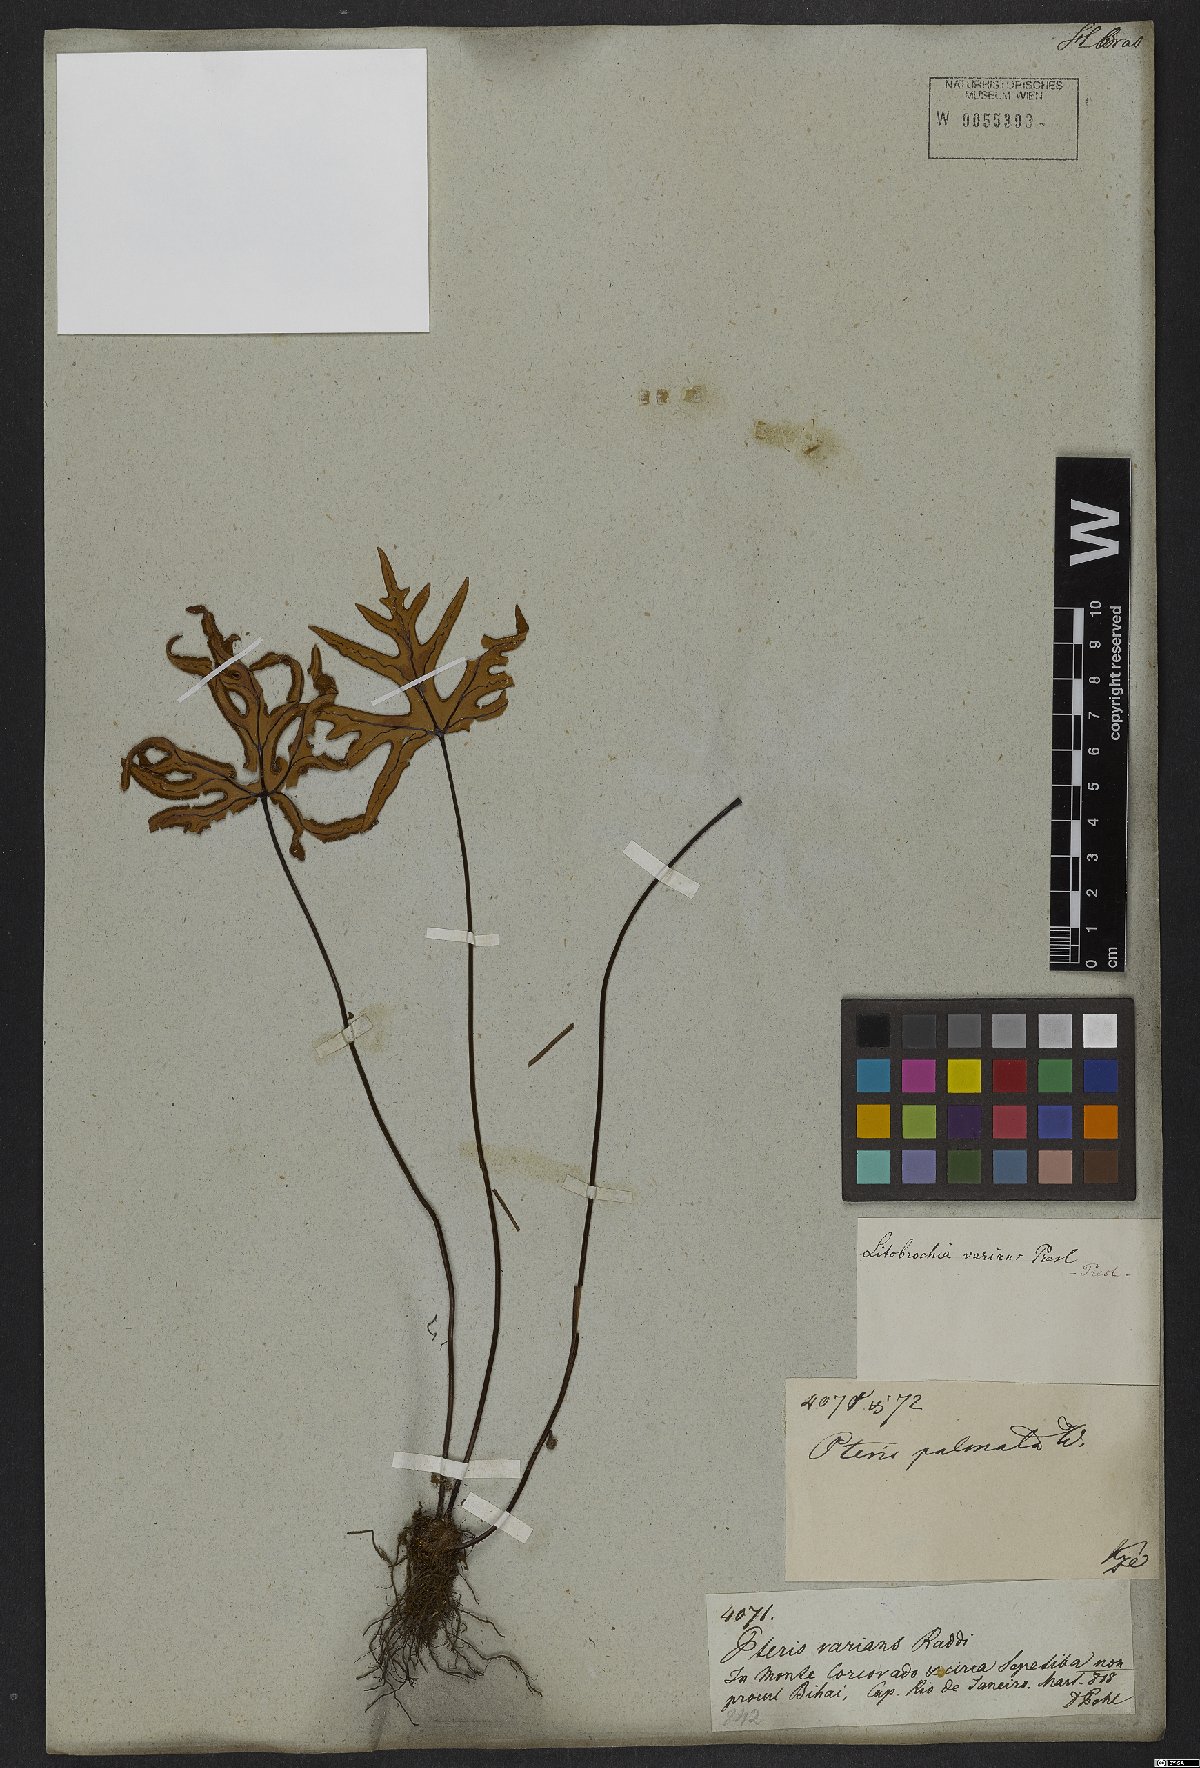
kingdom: Plantae
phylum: Tracheophyta
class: Polypodiopsida
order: Polypodiales
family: Pteridaceae
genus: Doryopteris
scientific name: Doryopteris varians
